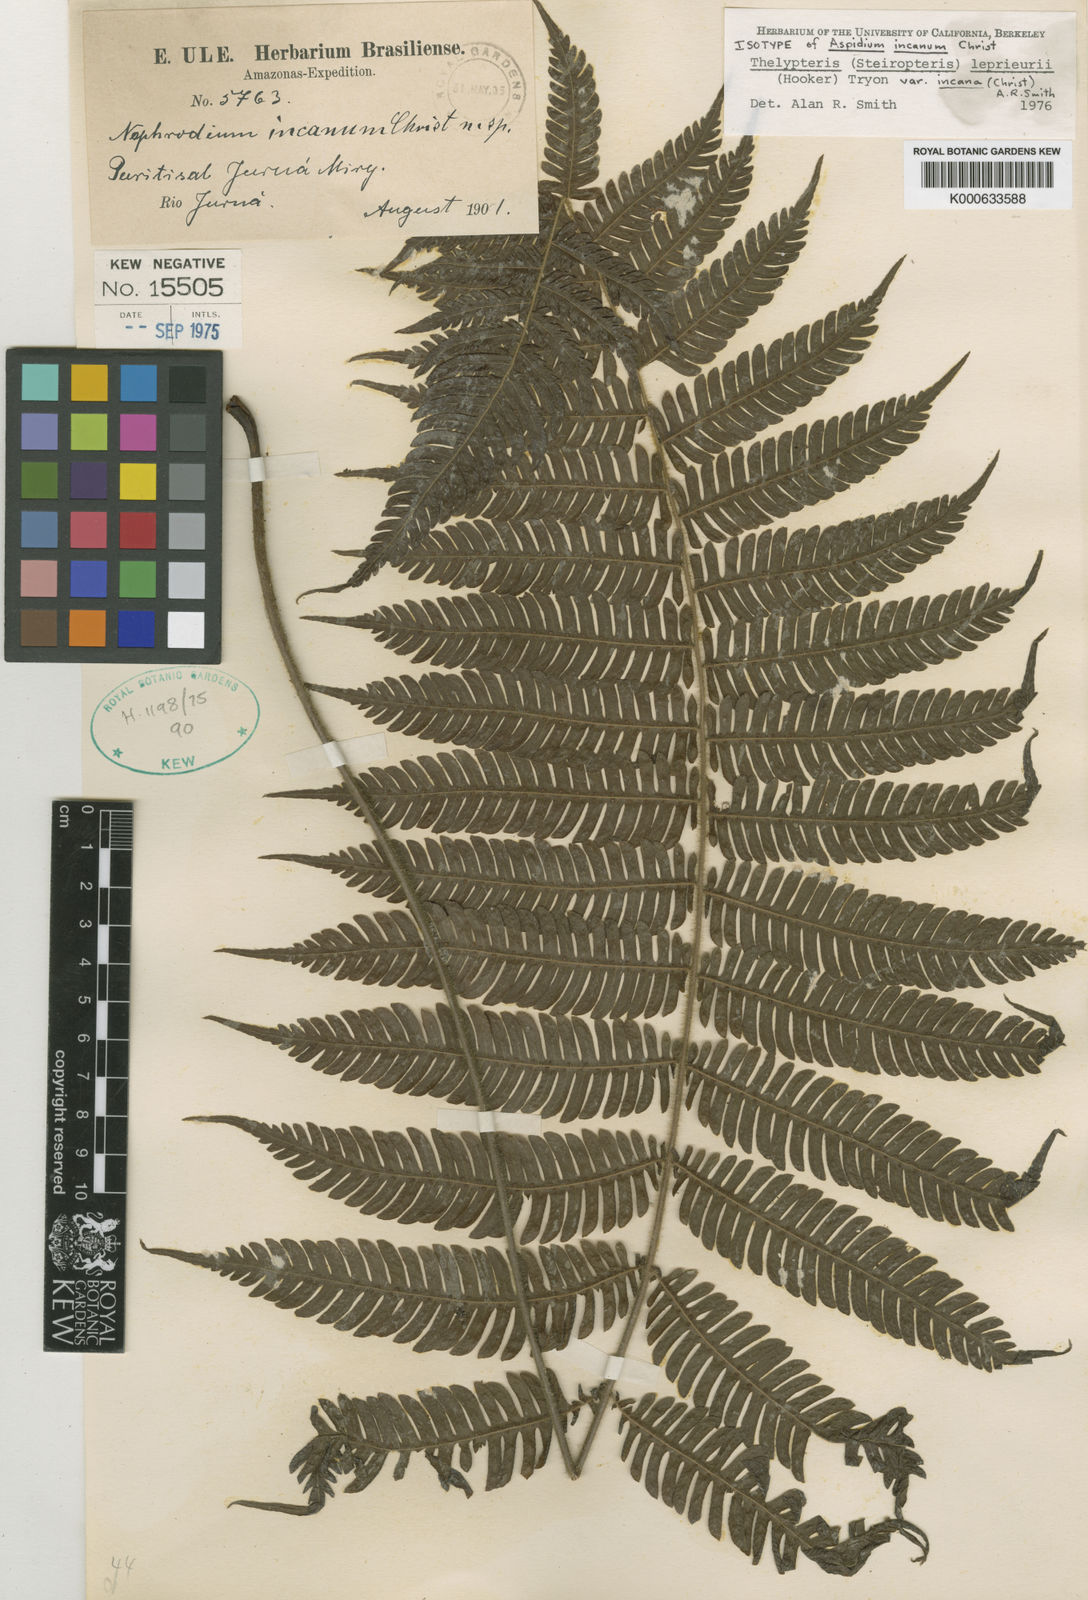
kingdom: Plantae
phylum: Tracheophyta
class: Polypodiopsida
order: Polypodiales
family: Thelypteridaceae
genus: Steiropteris
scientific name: Steiropteris leprieurii
